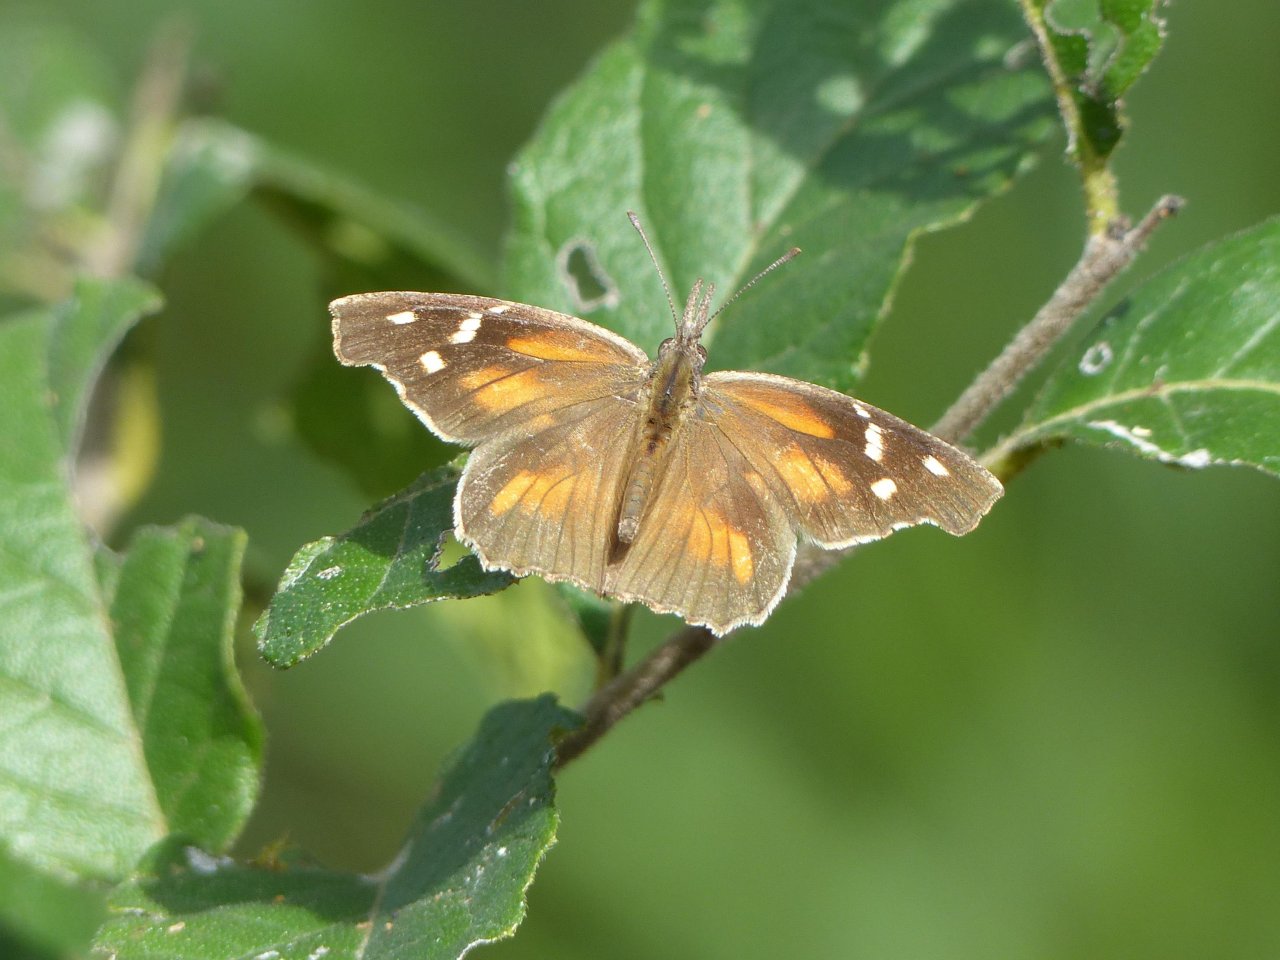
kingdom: Animalia
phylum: Arthropoda
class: Insecta
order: Lepidoptera
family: Nymphalidae
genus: Libytheana
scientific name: Libytheana carinenta
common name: American Snout
